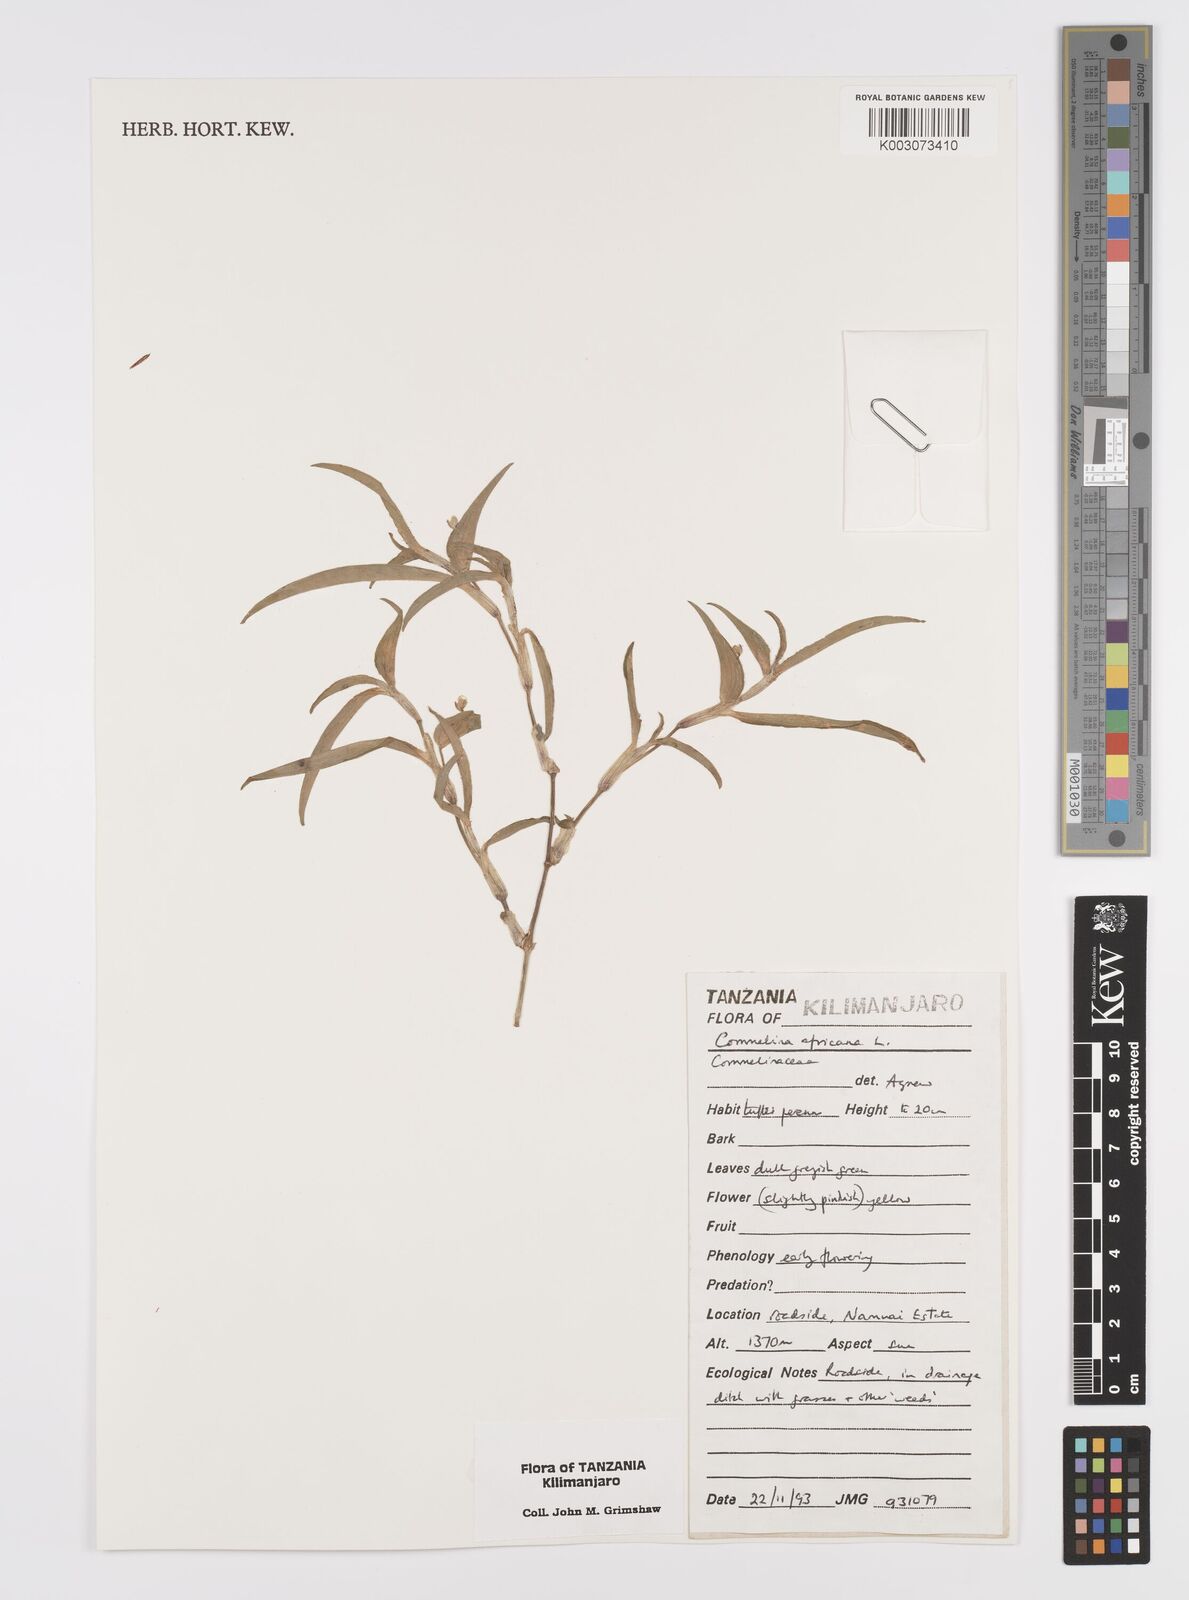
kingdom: Plantae
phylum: Tracheophyta
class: Liliopsida
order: Commelinales
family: Commelinaceae
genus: Commelina
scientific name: Commelina africana
